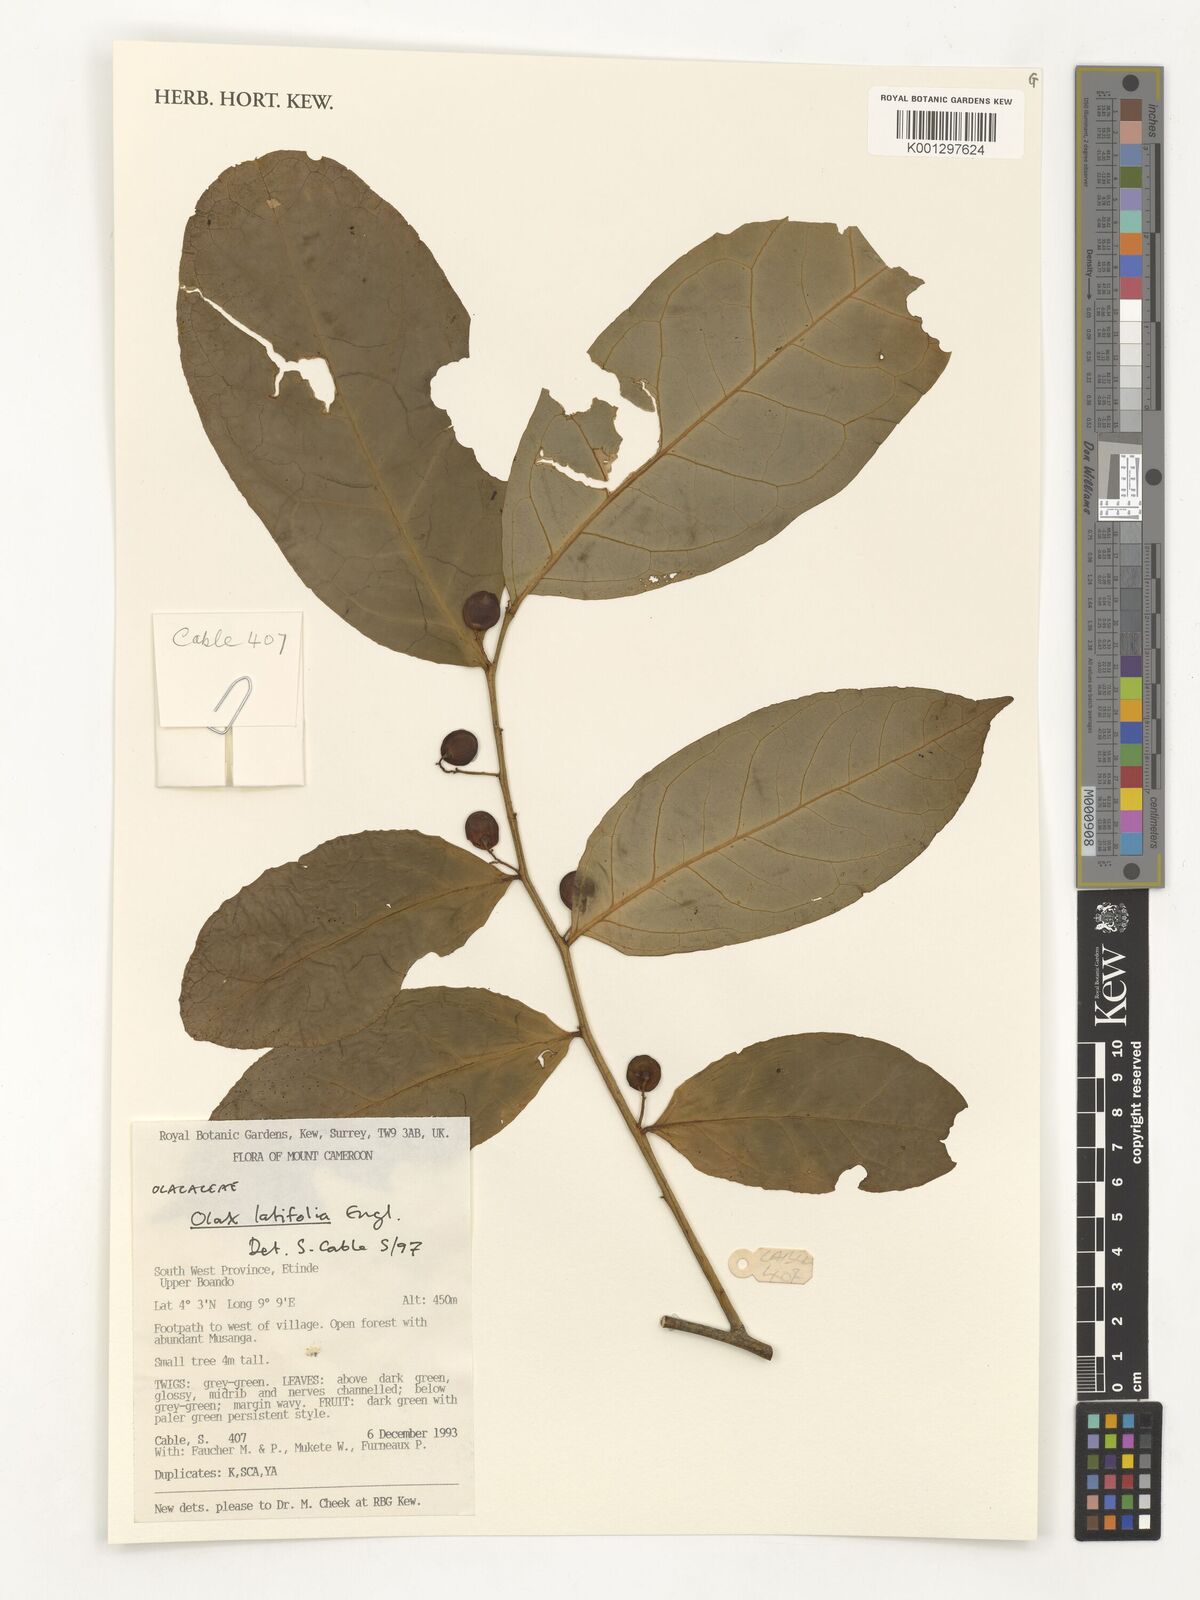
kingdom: Plantae
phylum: Tracheophyta
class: Magnoliopsida
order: Santalales
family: Olacaceae
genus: Olax
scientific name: Olax latifolia
